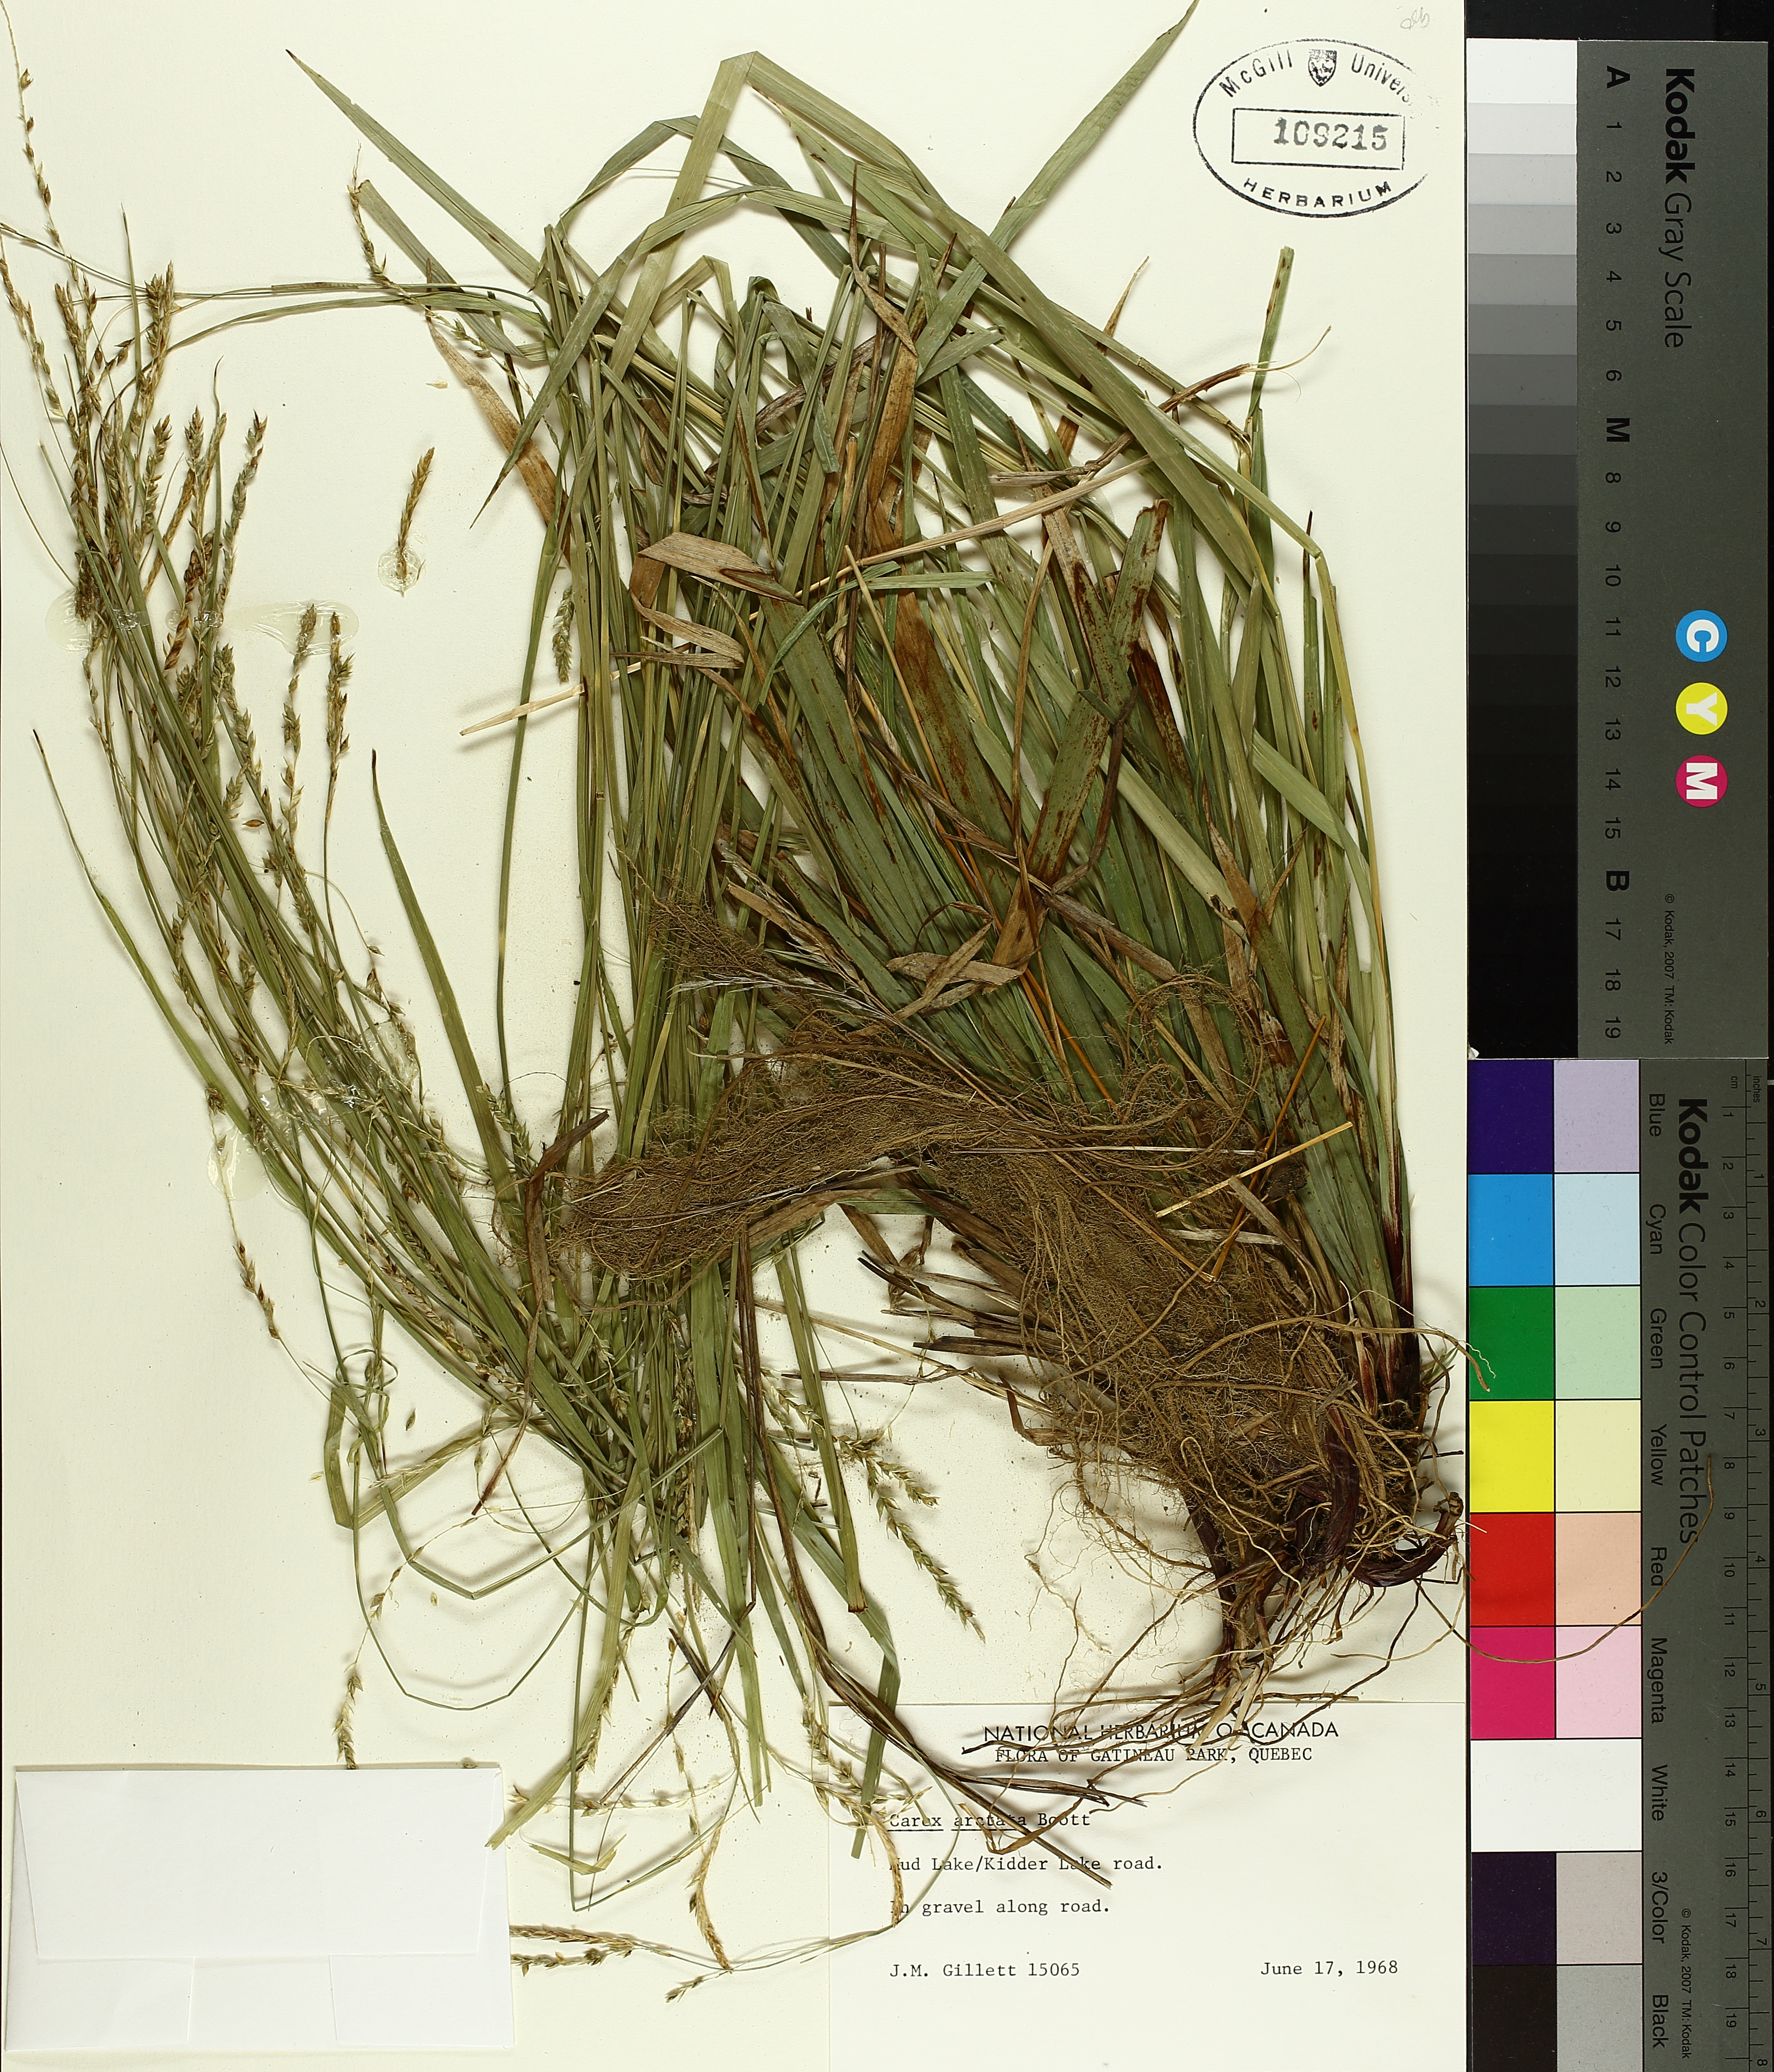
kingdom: Plantae
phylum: Tracheophyta
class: Liliopsida
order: Poales
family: Cyperaceae
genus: Carex
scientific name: Carex arctata
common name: Black sedge
